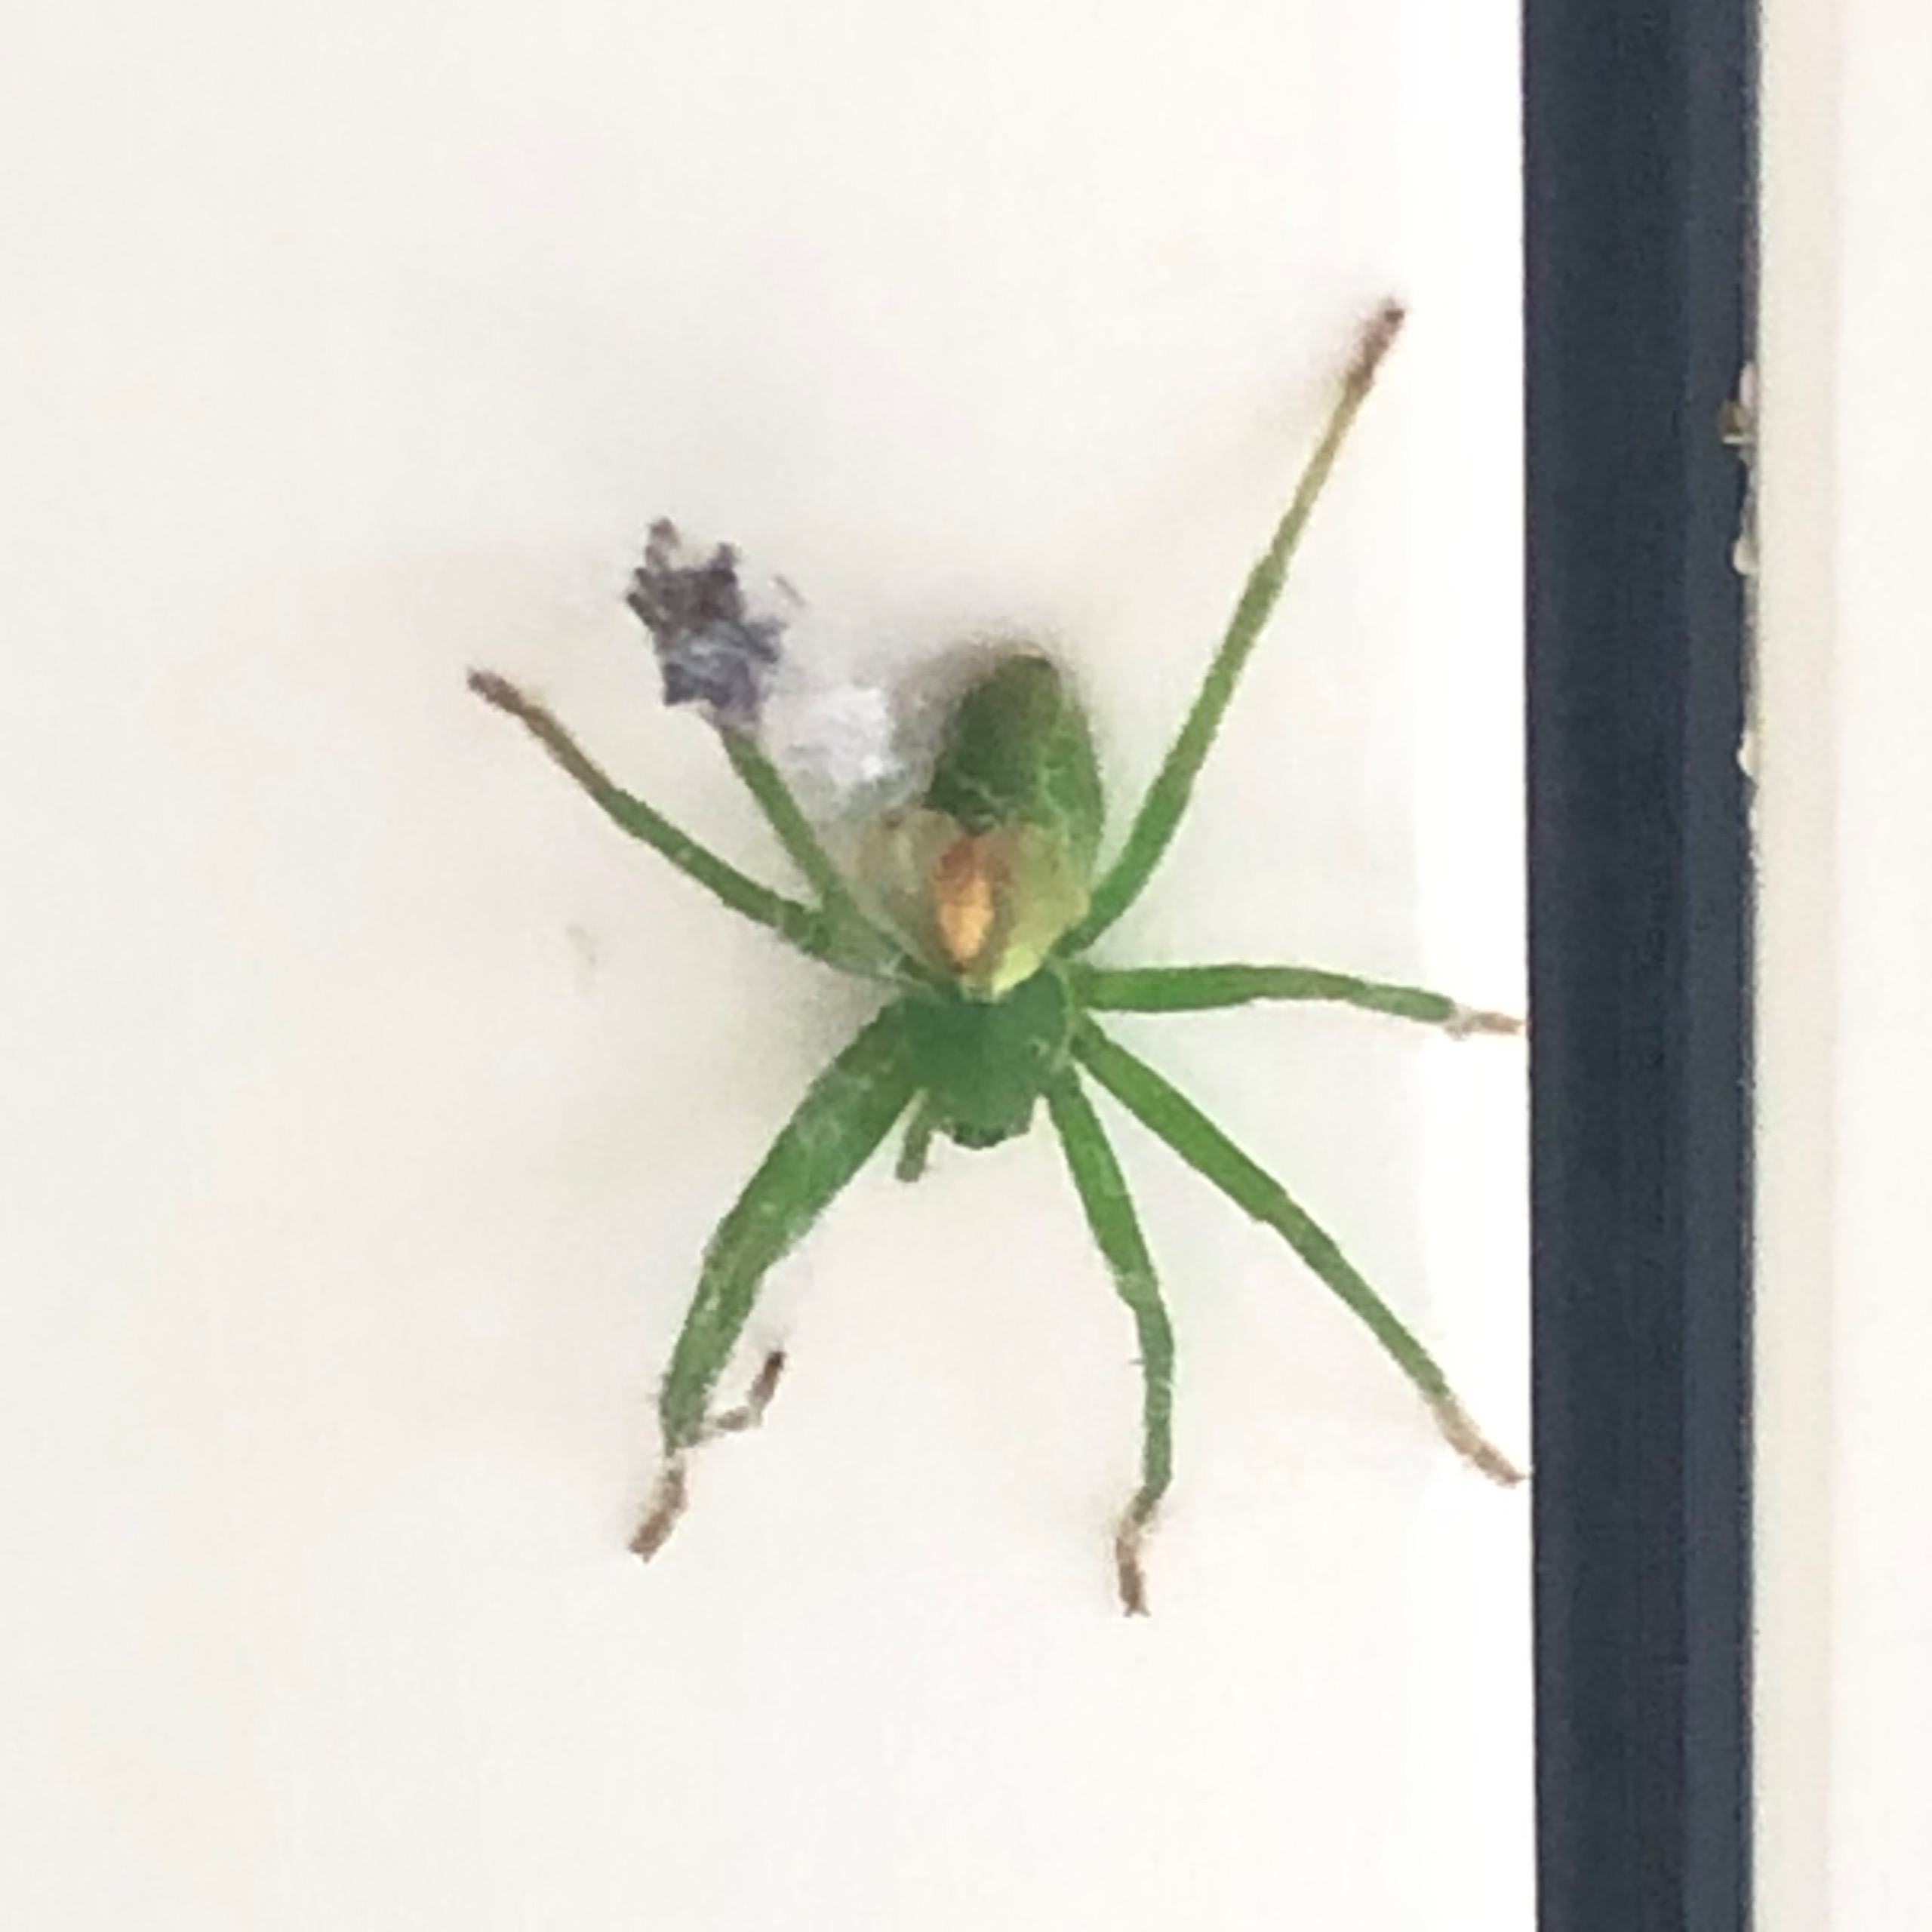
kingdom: Animalia
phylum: Arthropoda
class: Arachnida
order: Araneae
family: Sparassidae
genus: Micrommata
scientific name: Micrommata virescens
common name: Smaragdedderkop
